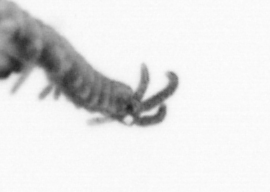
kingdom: Animalia
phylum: Annelida
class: Polychaeta
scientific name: Polychaeta
